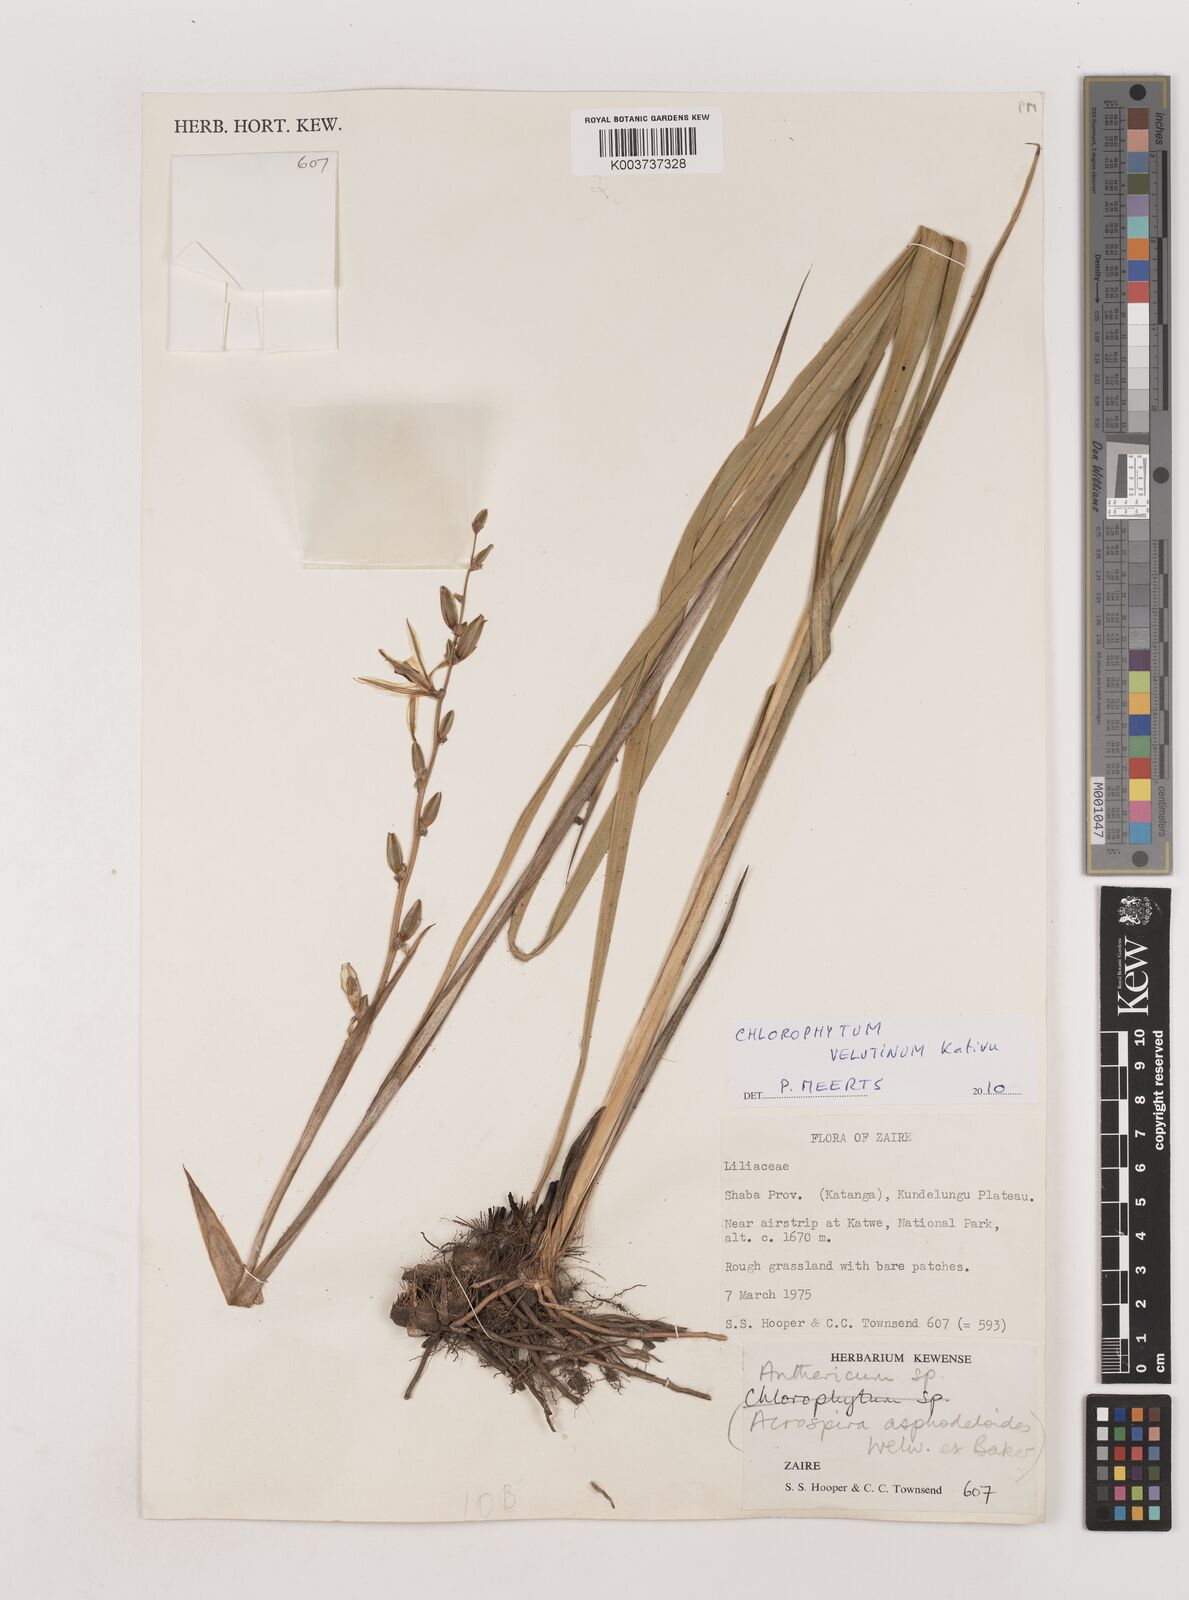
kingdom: Plantae
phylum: Tracheophyta
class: Liliopsida
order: Asparagales
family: Asparagaceae
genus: Chlorophytum
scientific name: Chlorophytum velutinum
